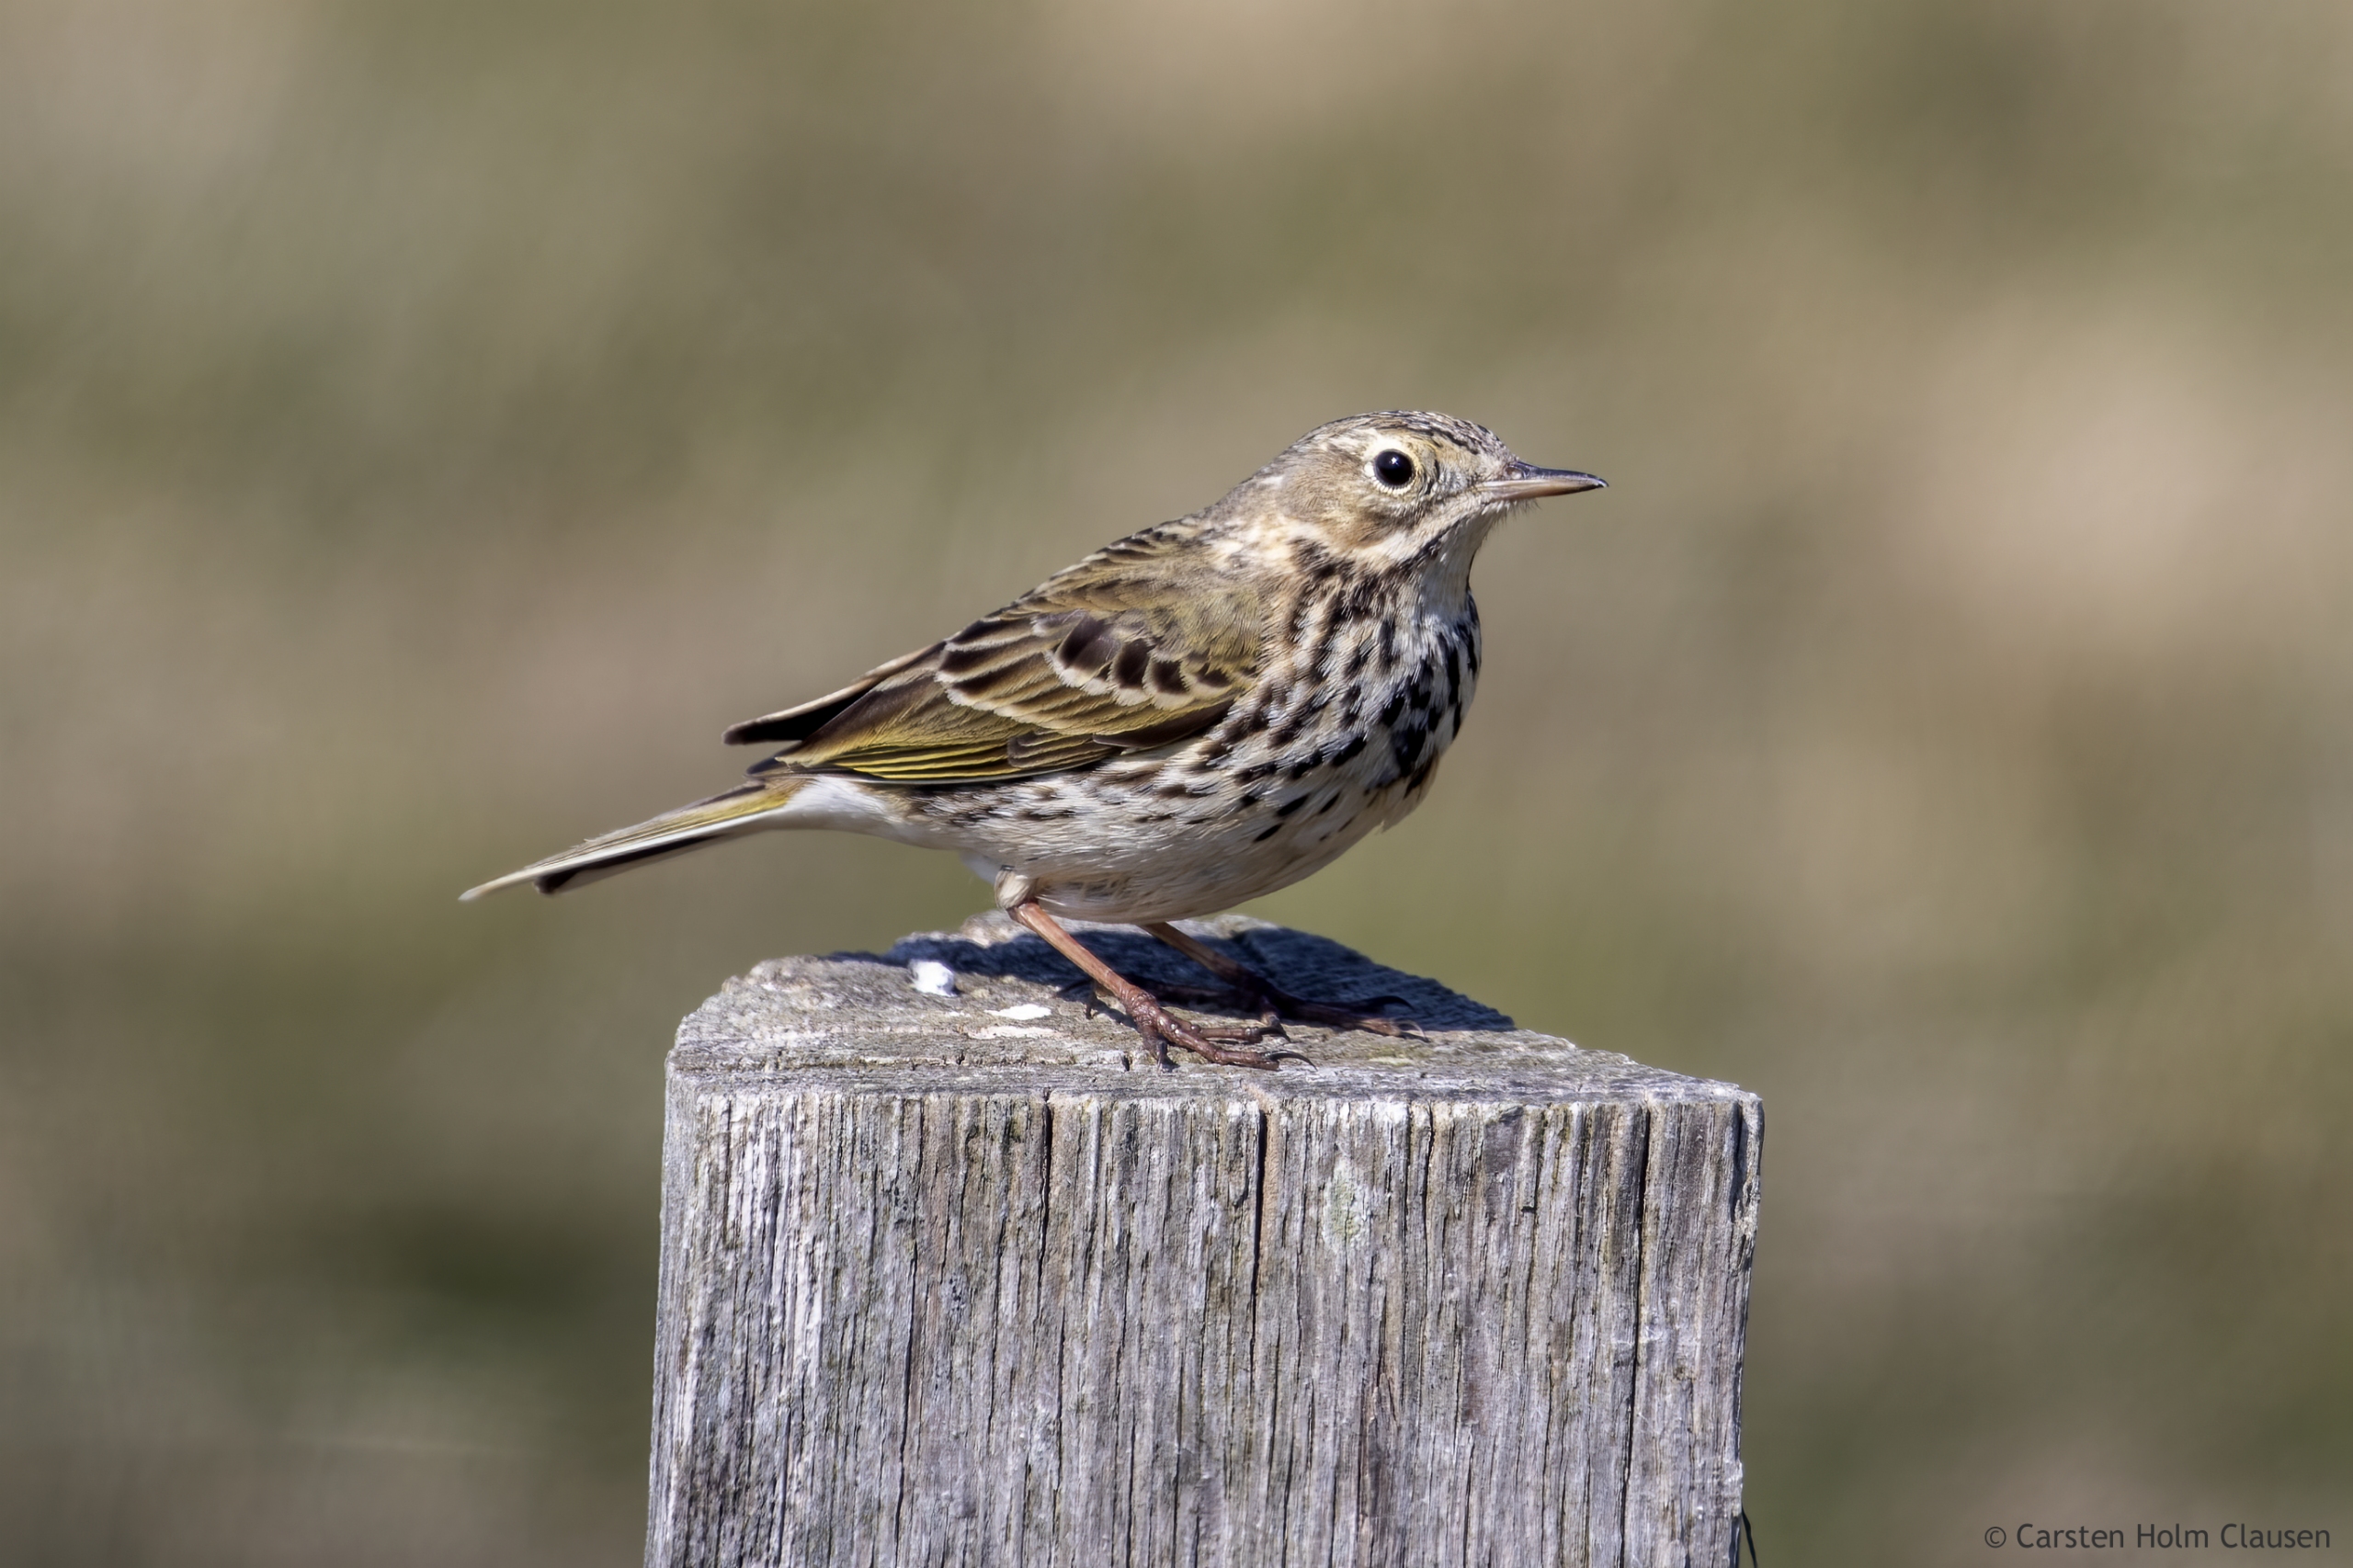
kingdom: Animalia
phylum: Chordata
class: Aves
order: Passeriformes
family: Motacillidae
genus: Anthus
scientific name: Anthus pratensis
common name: Engpiber
